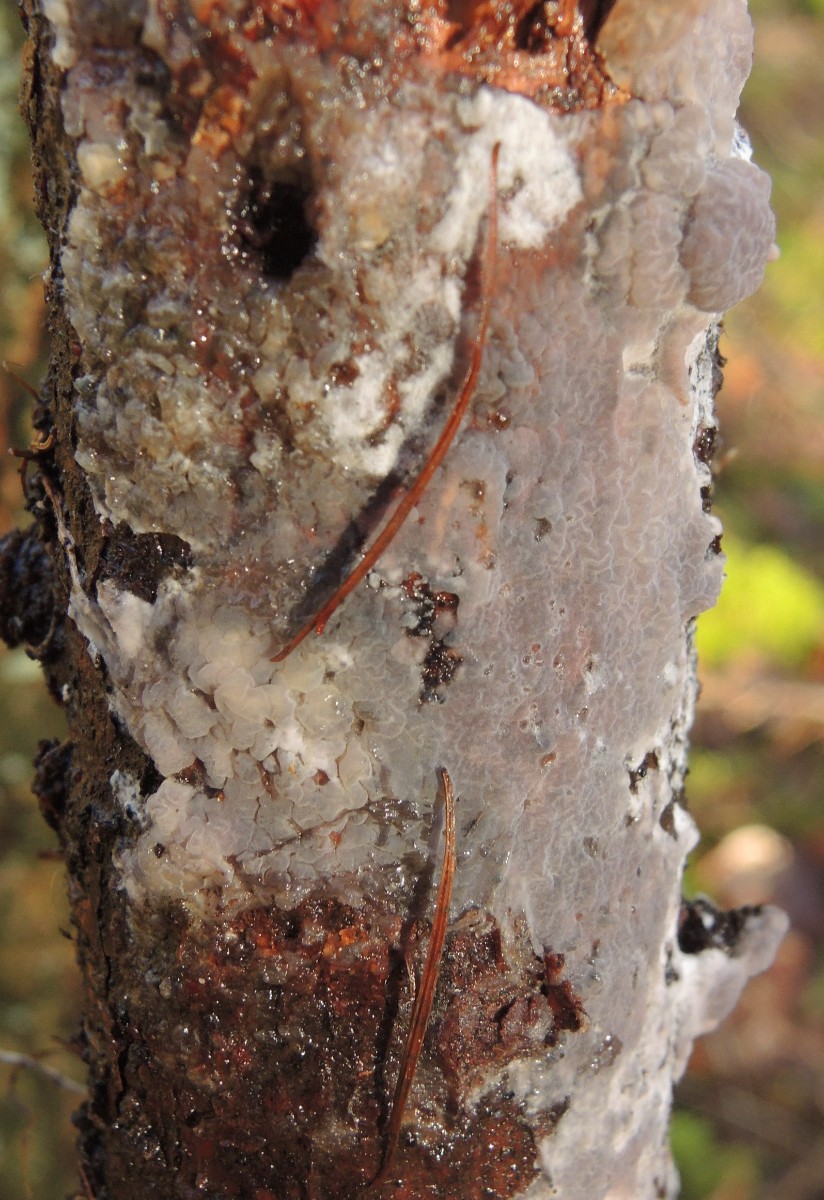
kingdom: Fungi
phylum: Basidiomycota
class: Agaricomycetes
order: Sebacinales
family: Sebacinaceae
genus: Sebacina
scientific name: Sebacina grisea
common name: blågrå bævrehinde
